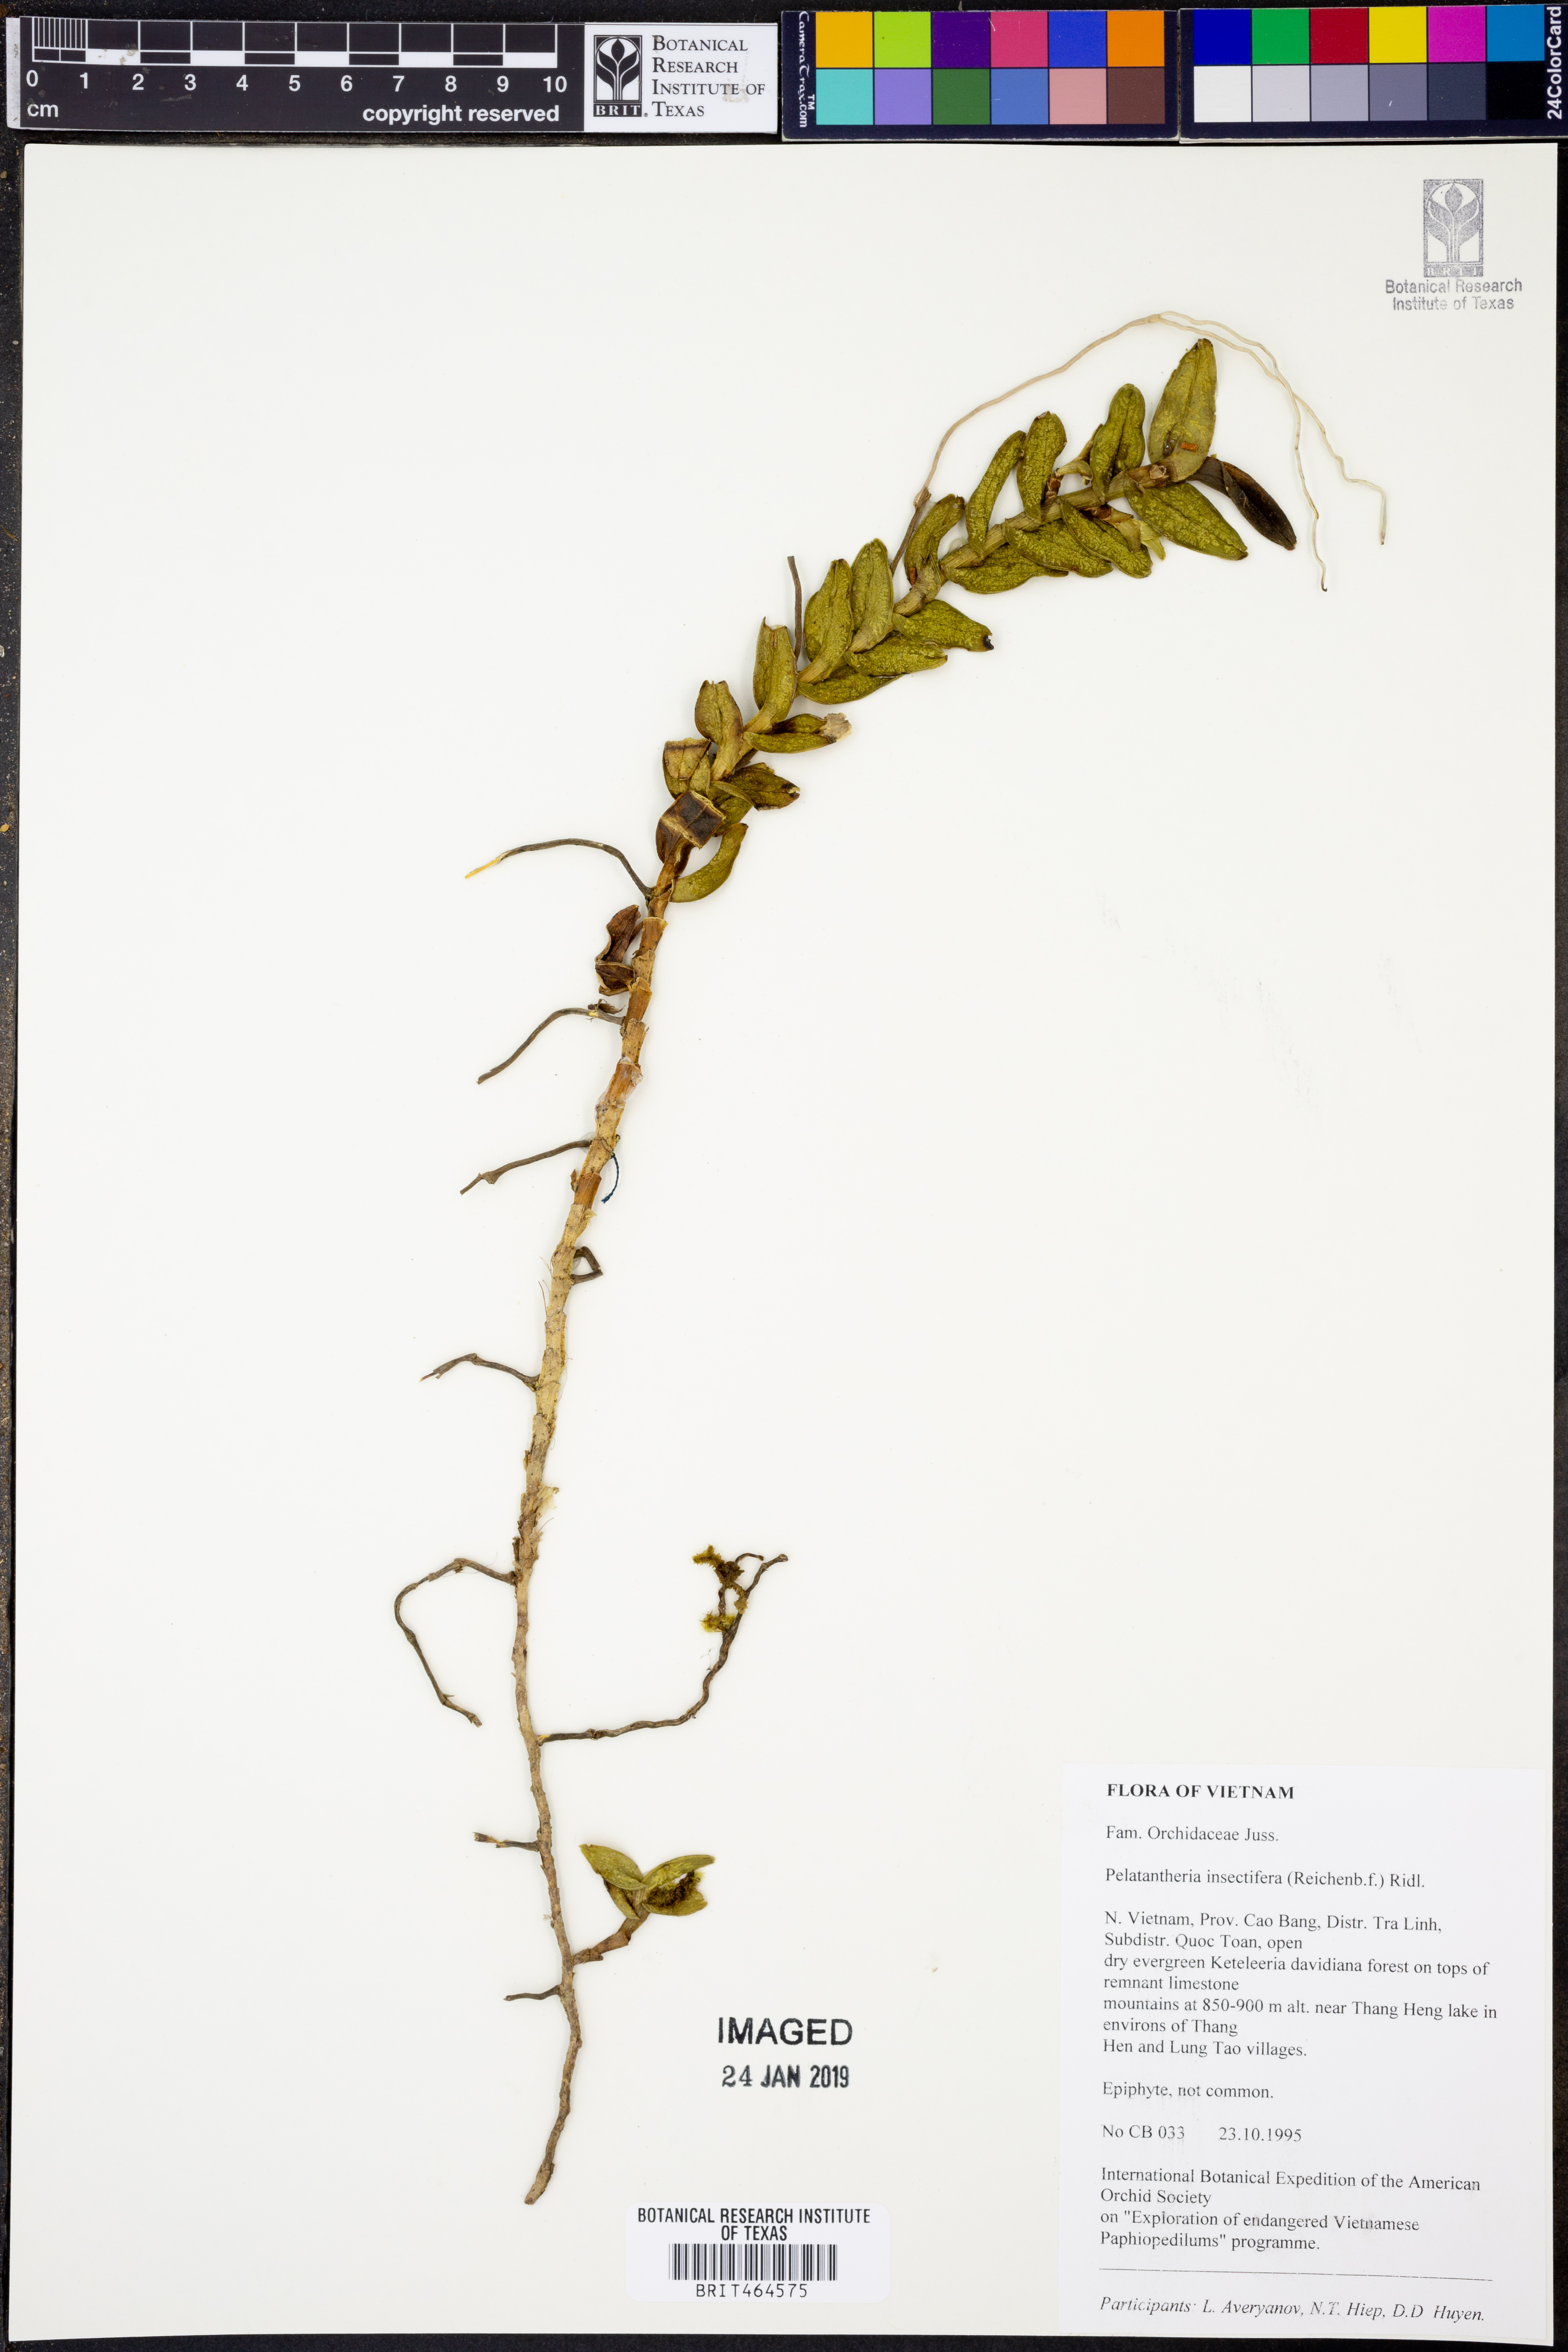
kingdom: Plantae
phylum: Tracheophyta
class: Liliopsida
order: Asparagales
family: Orchidaceae
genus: Pelatantheria
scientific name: Pelatantheria insectifera
